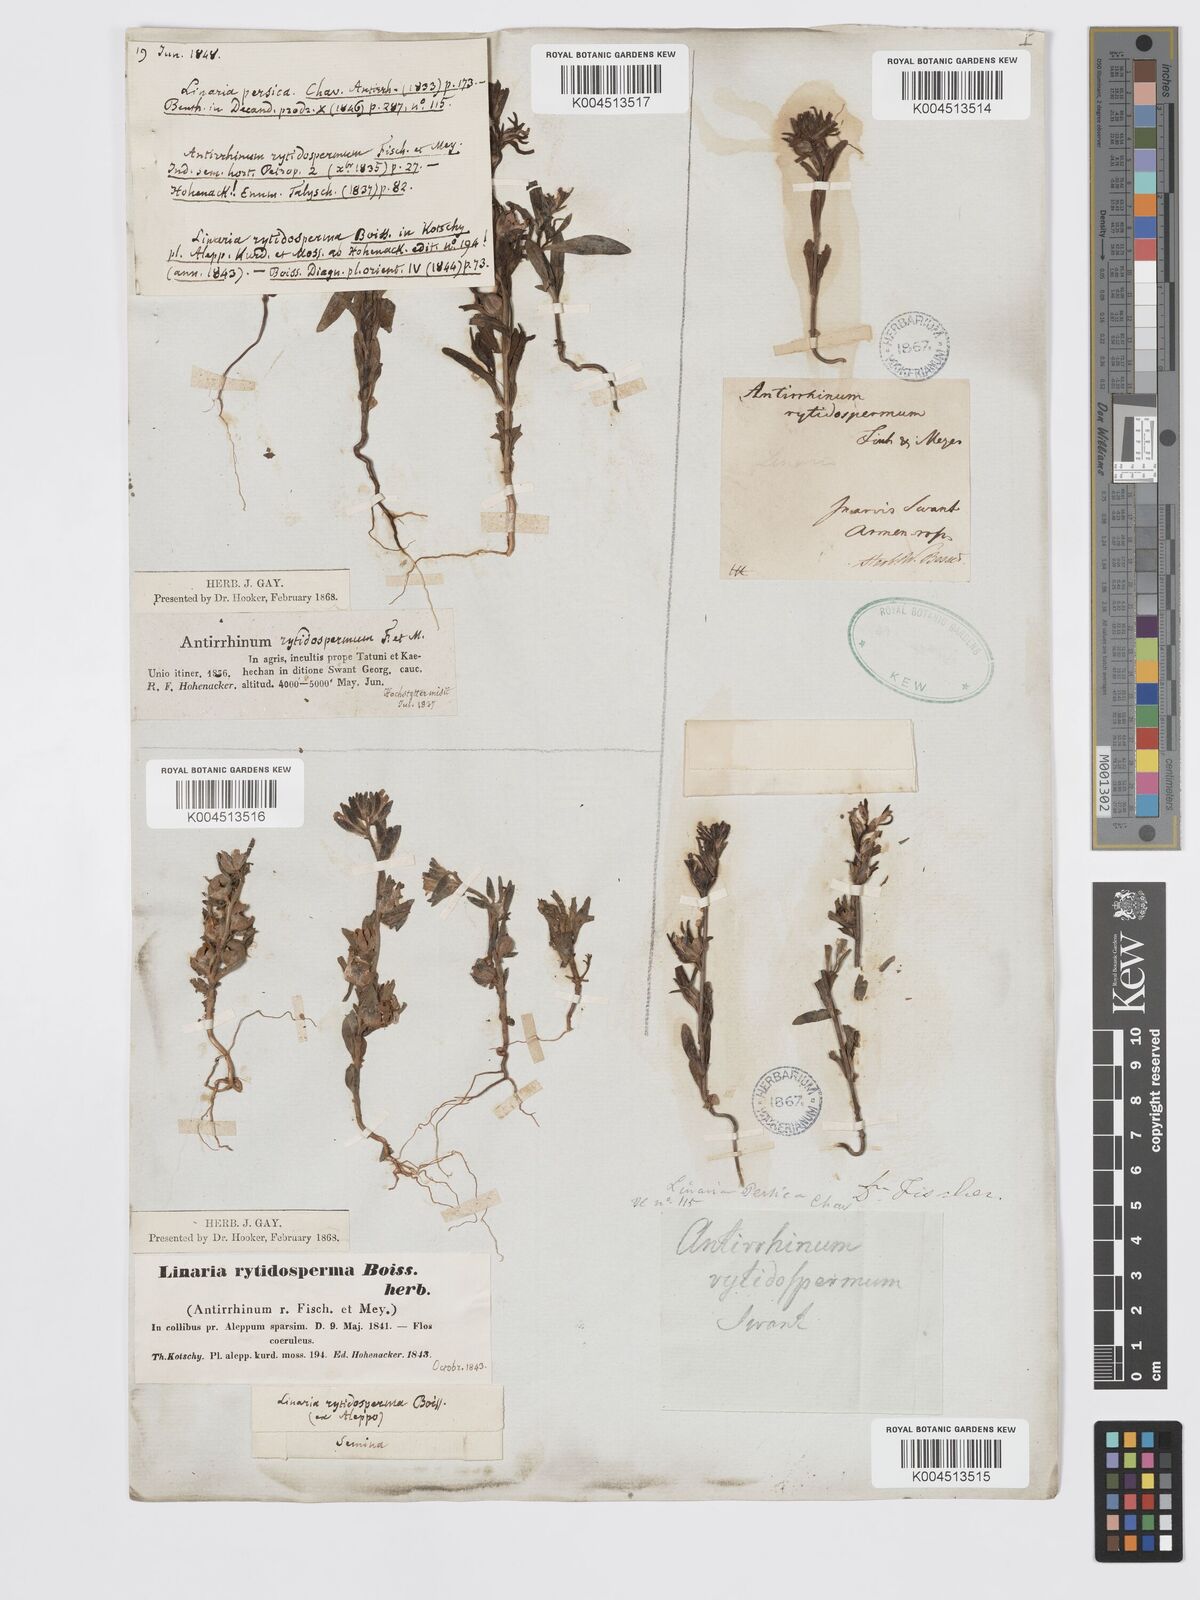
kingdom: Plantae
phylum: Tracheophyta
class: Magnoliopsida
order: Lamiales
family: Plantaginaceae
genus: Chaenorhinum
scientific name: Chaenorhinum calycinum
